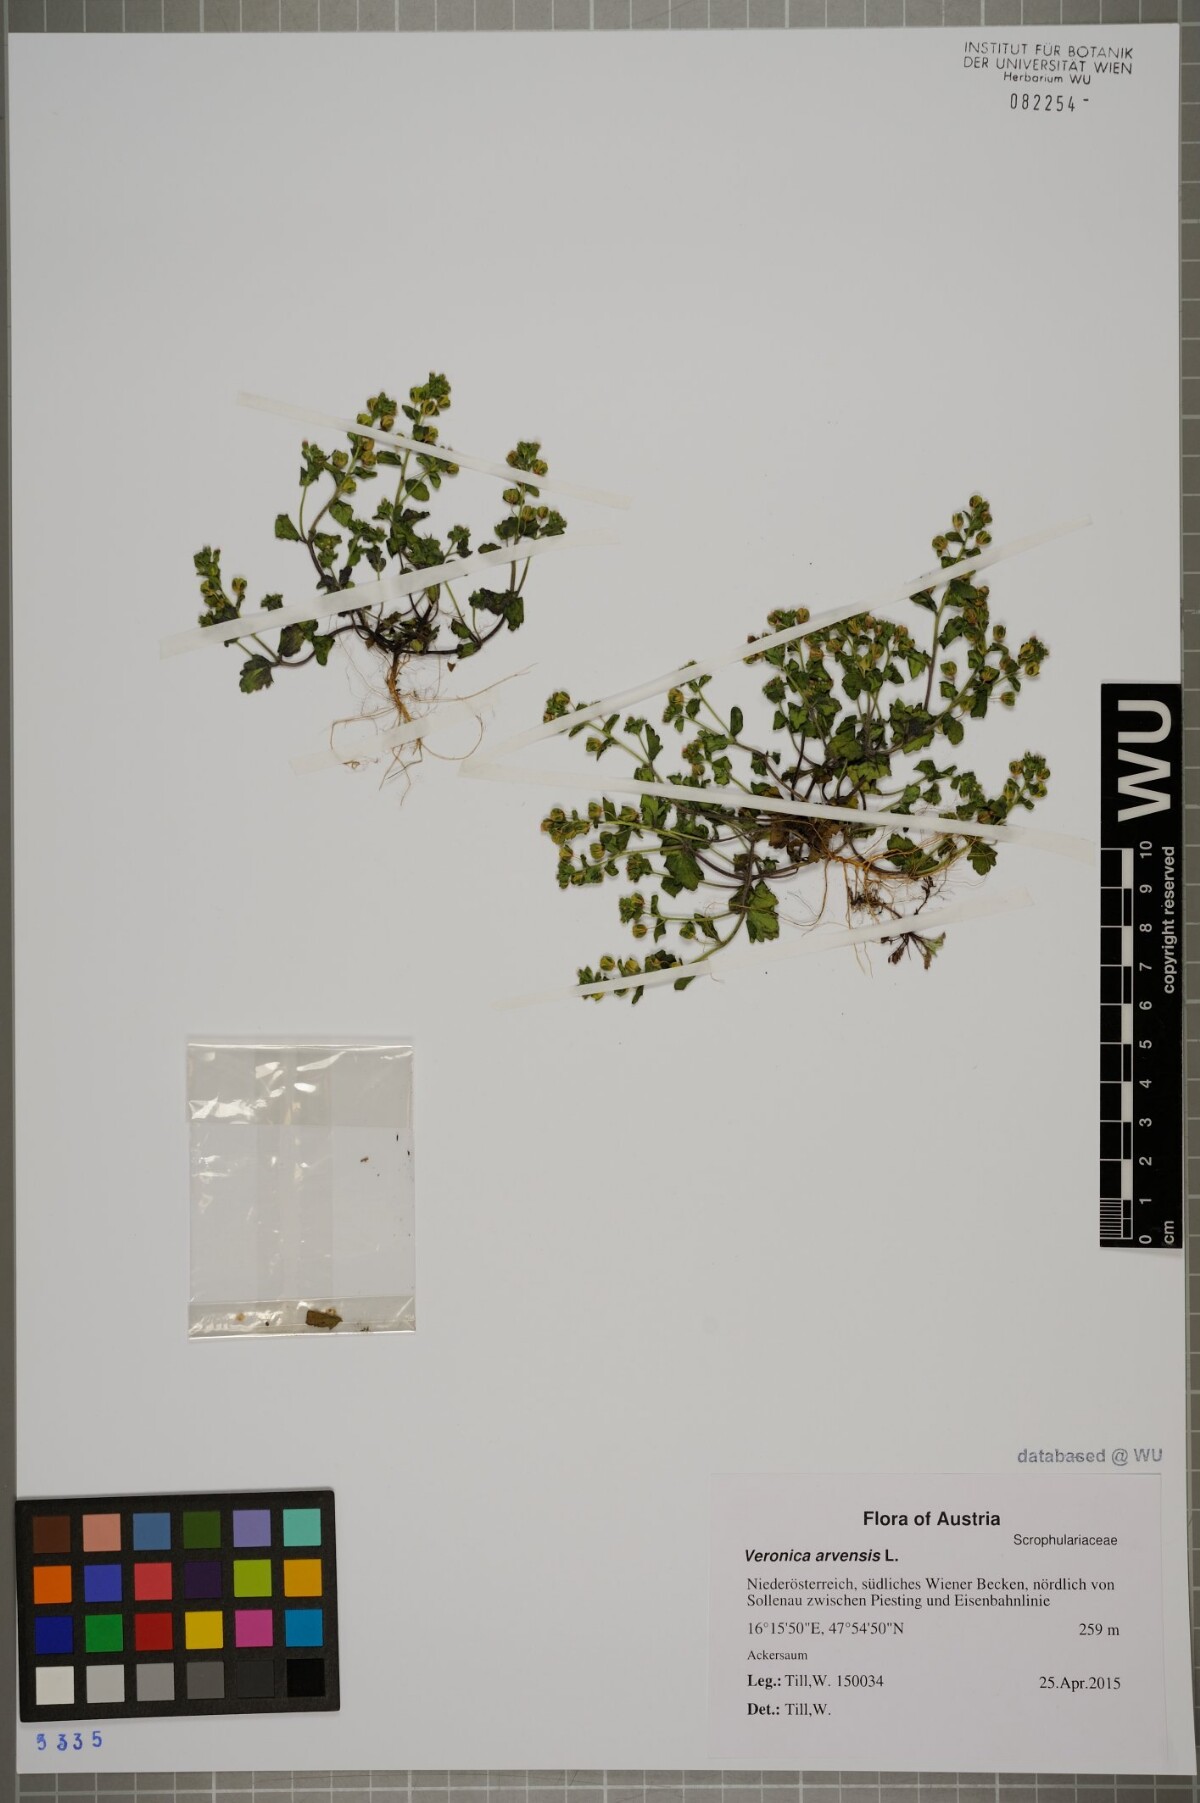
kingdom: Plantae
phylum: Tracheophyta
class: Magnoliopsida
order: Lamiales
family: Plantaginaceae
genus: Veronica
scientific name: Veronica arvensis
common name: Corn speedwell
